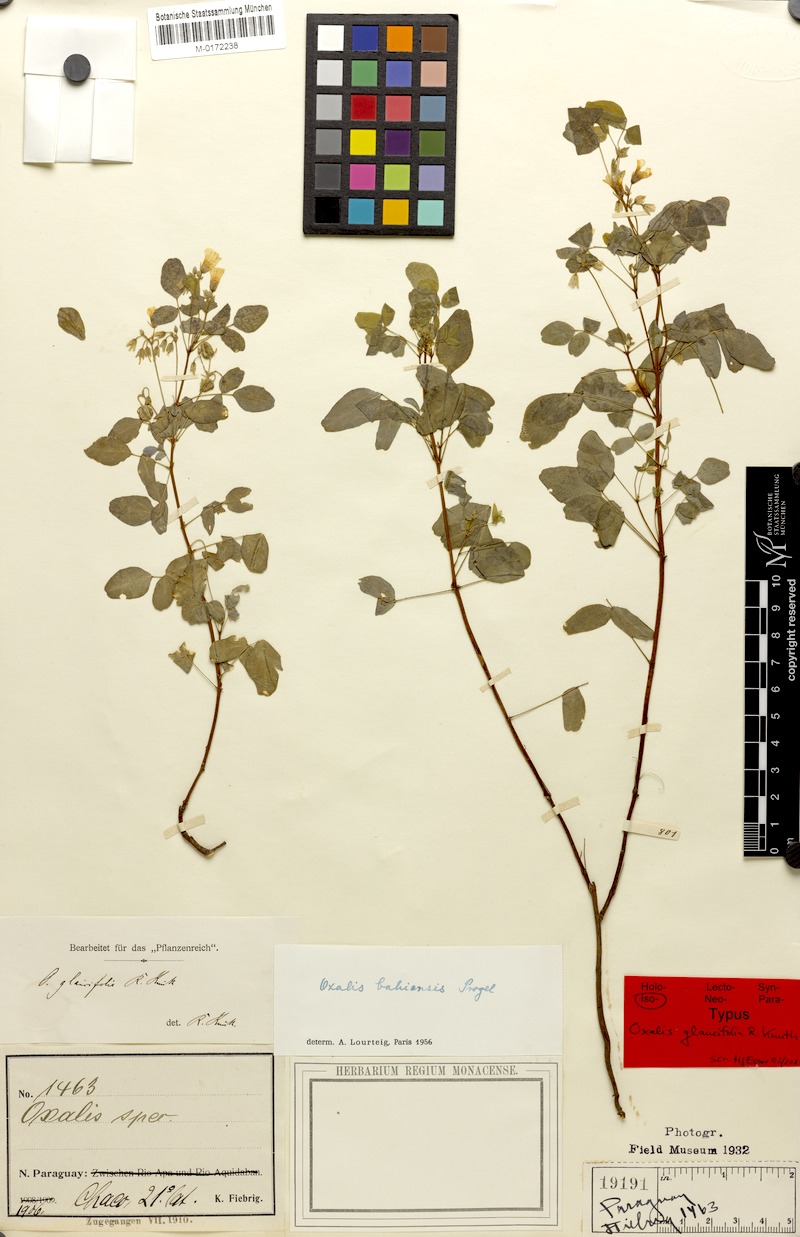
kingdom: Plantae
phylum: Tracheophyta
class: Magnoliopsida
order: Oxalidales
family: Oxalidaceae
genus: Oxalis
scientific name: Oxalis frutescens
